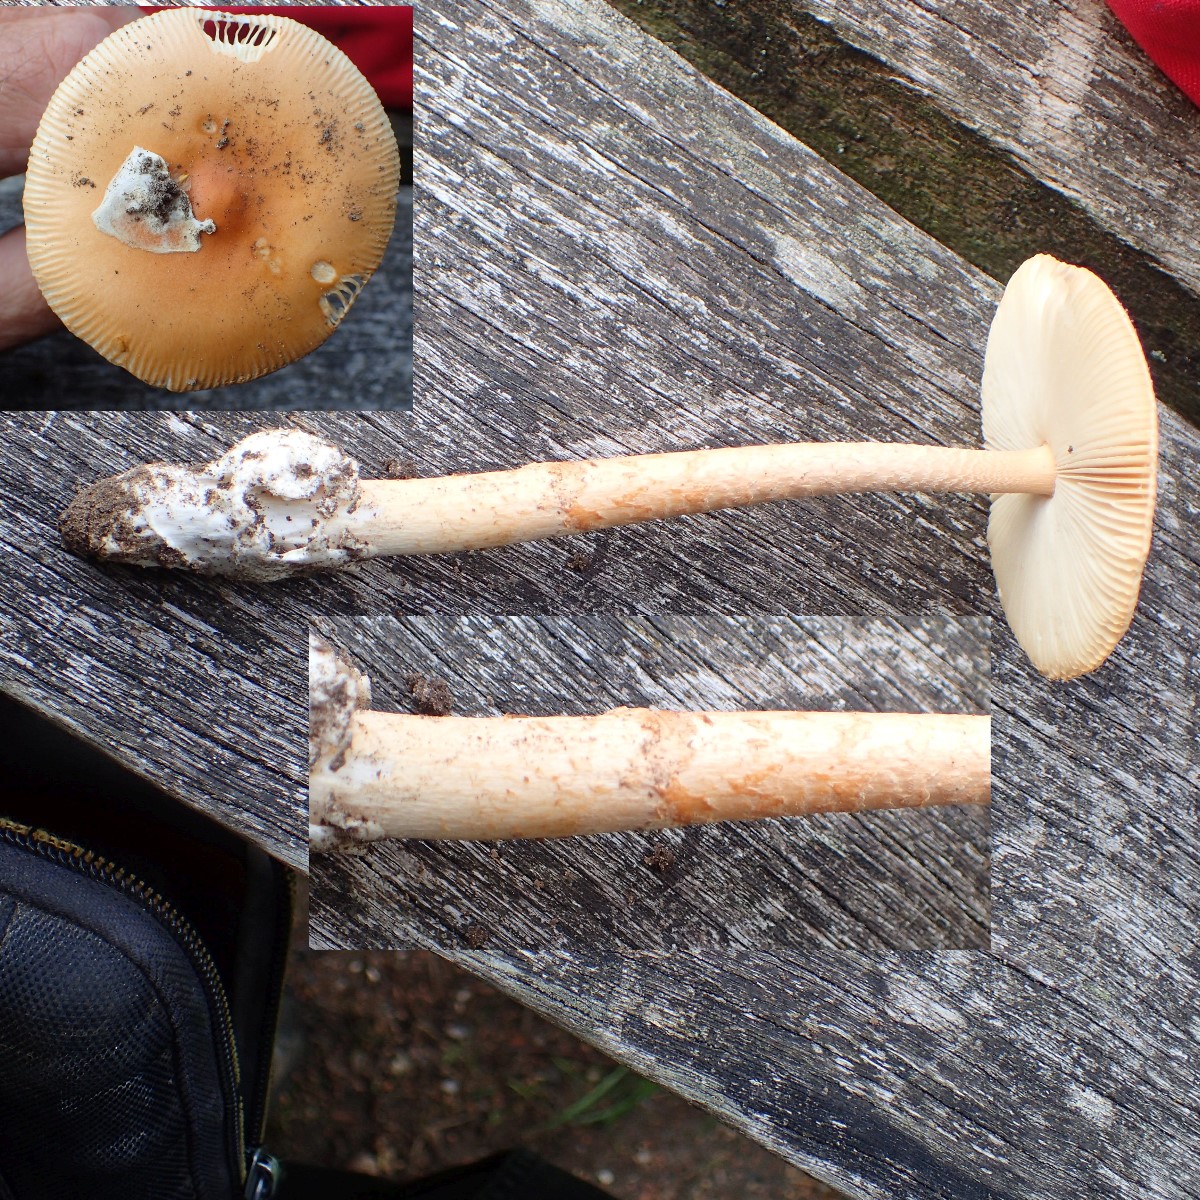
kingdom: Fungi
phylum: Basidiomycota
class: Agaricomycetes
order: Agaricales
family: Amanitaceae
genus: Amanita
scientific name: Amanita crocea
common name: gylden kam-fluesvamp
